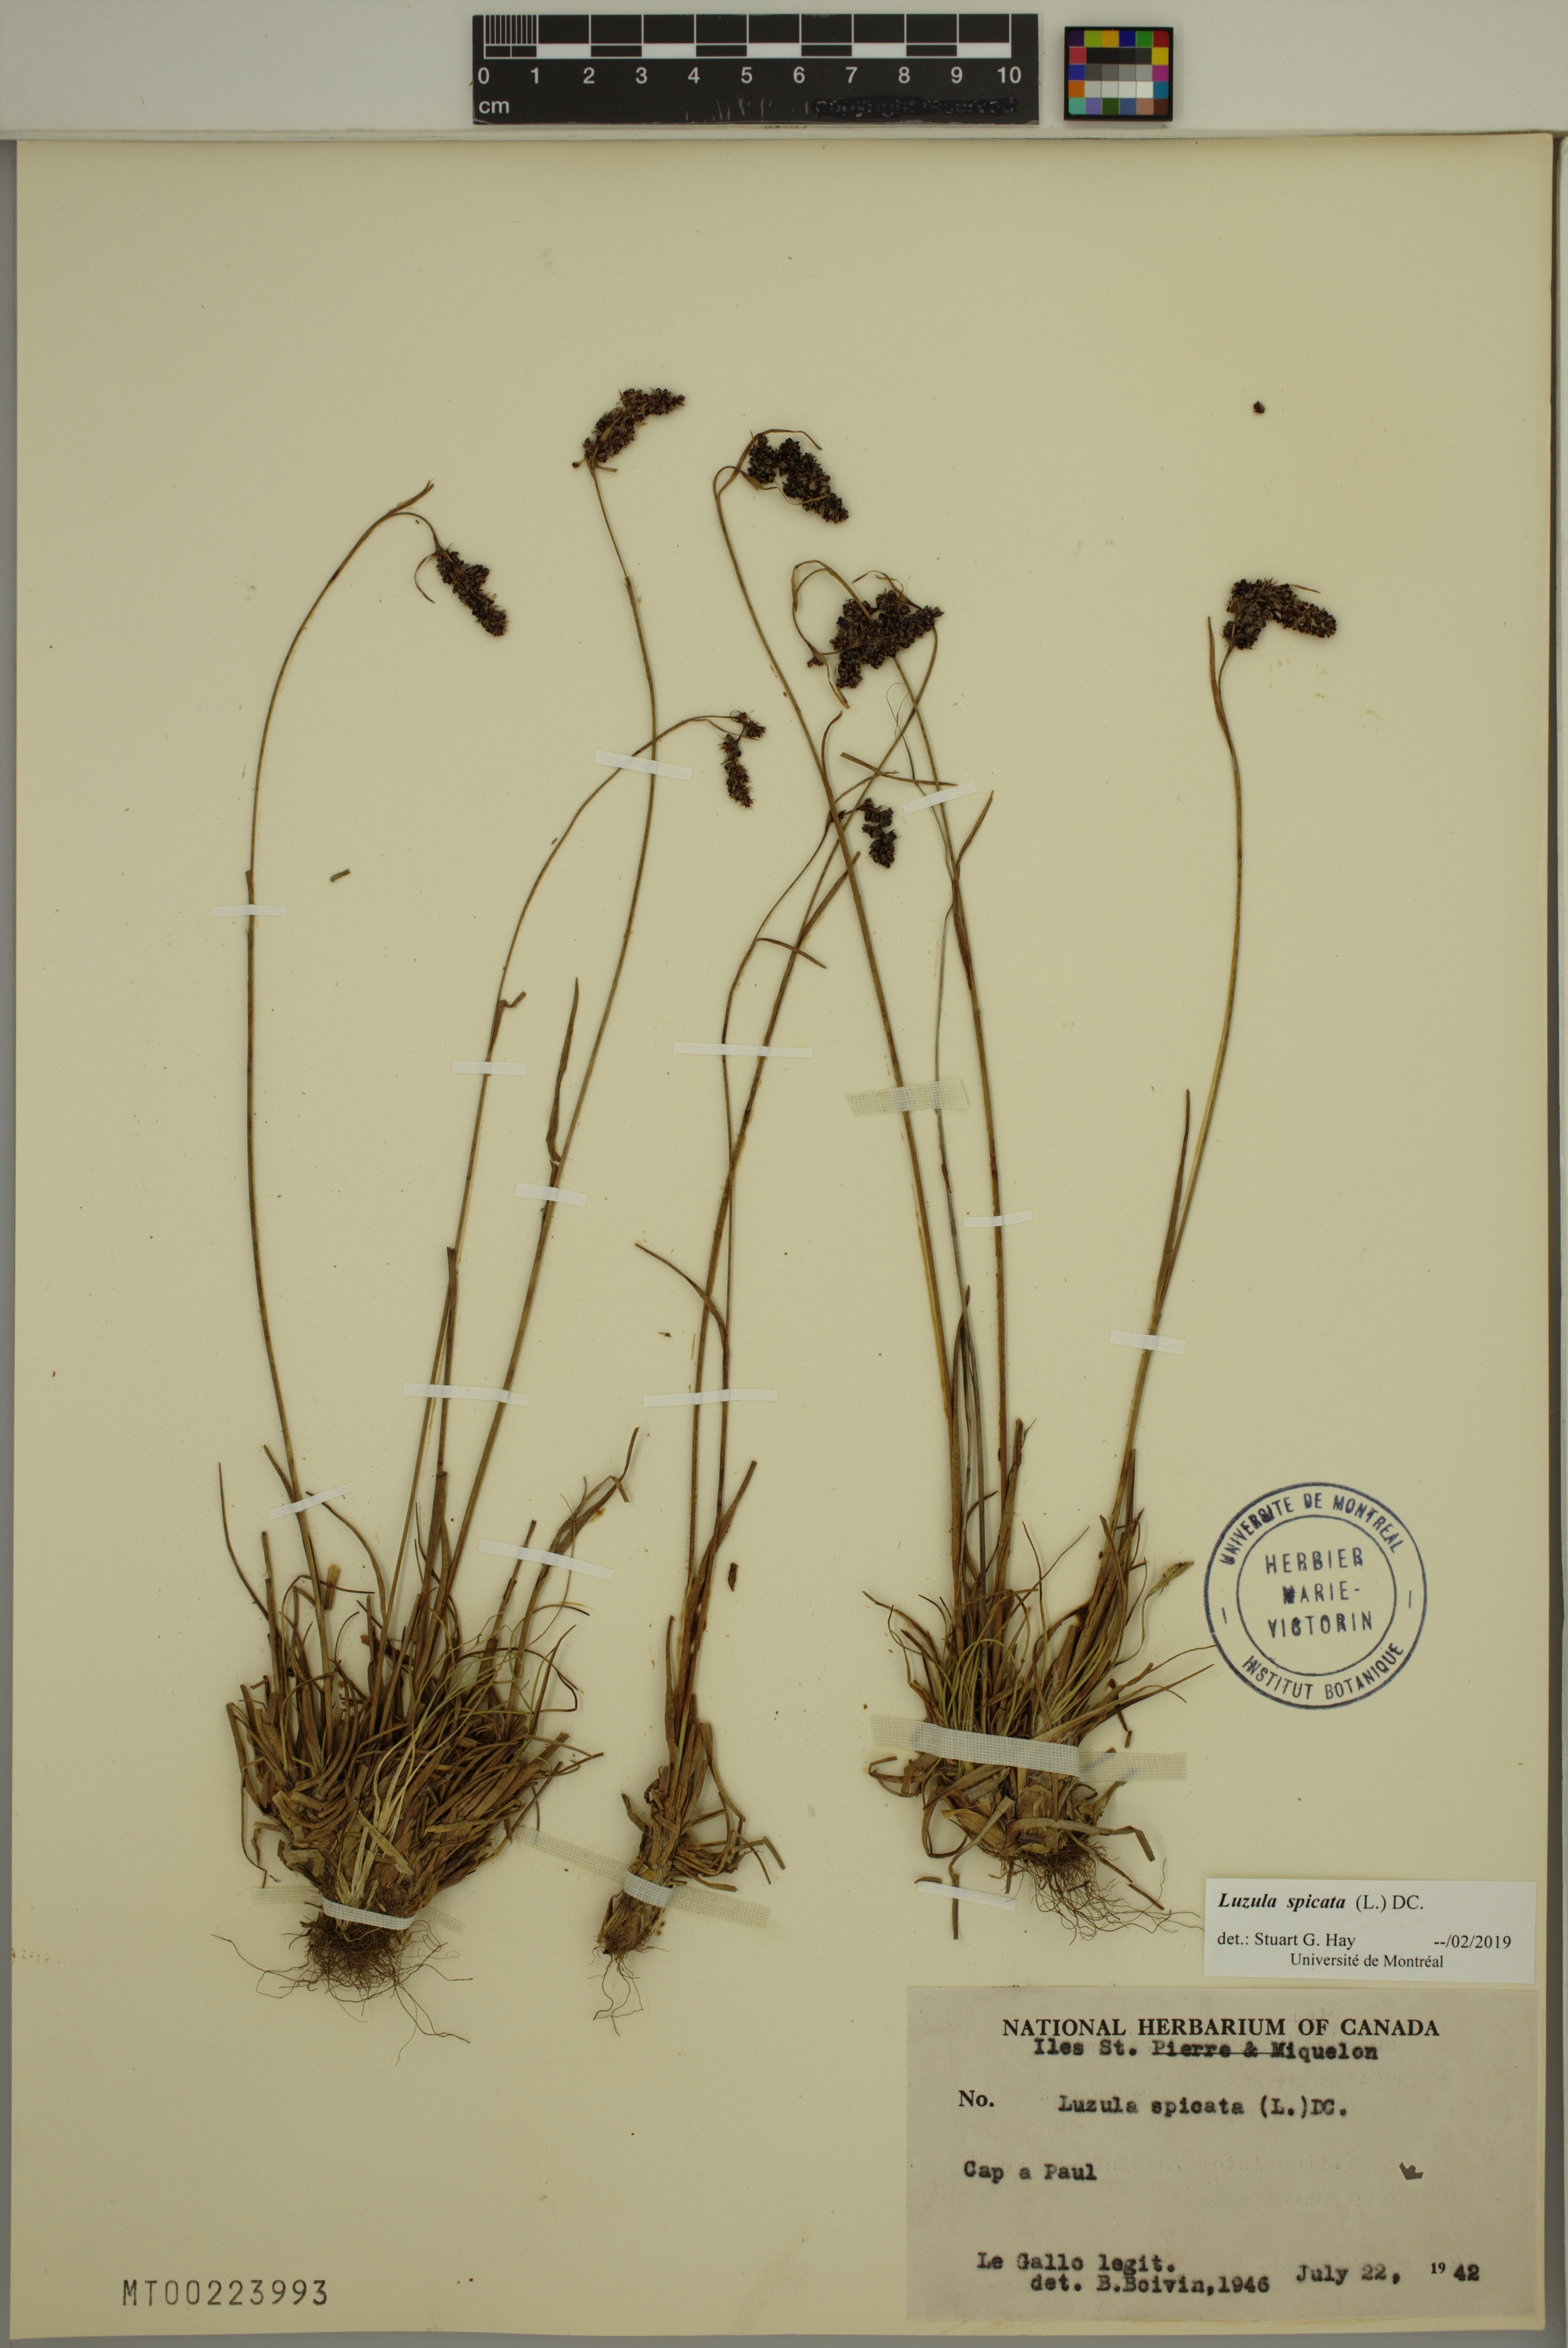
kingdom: Plantae
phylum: Tracheophyta
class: Liliopsida
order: Poales
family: Juncaceae
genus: Luzula
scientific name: Luzula spicata
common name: Spiked wood-rush
